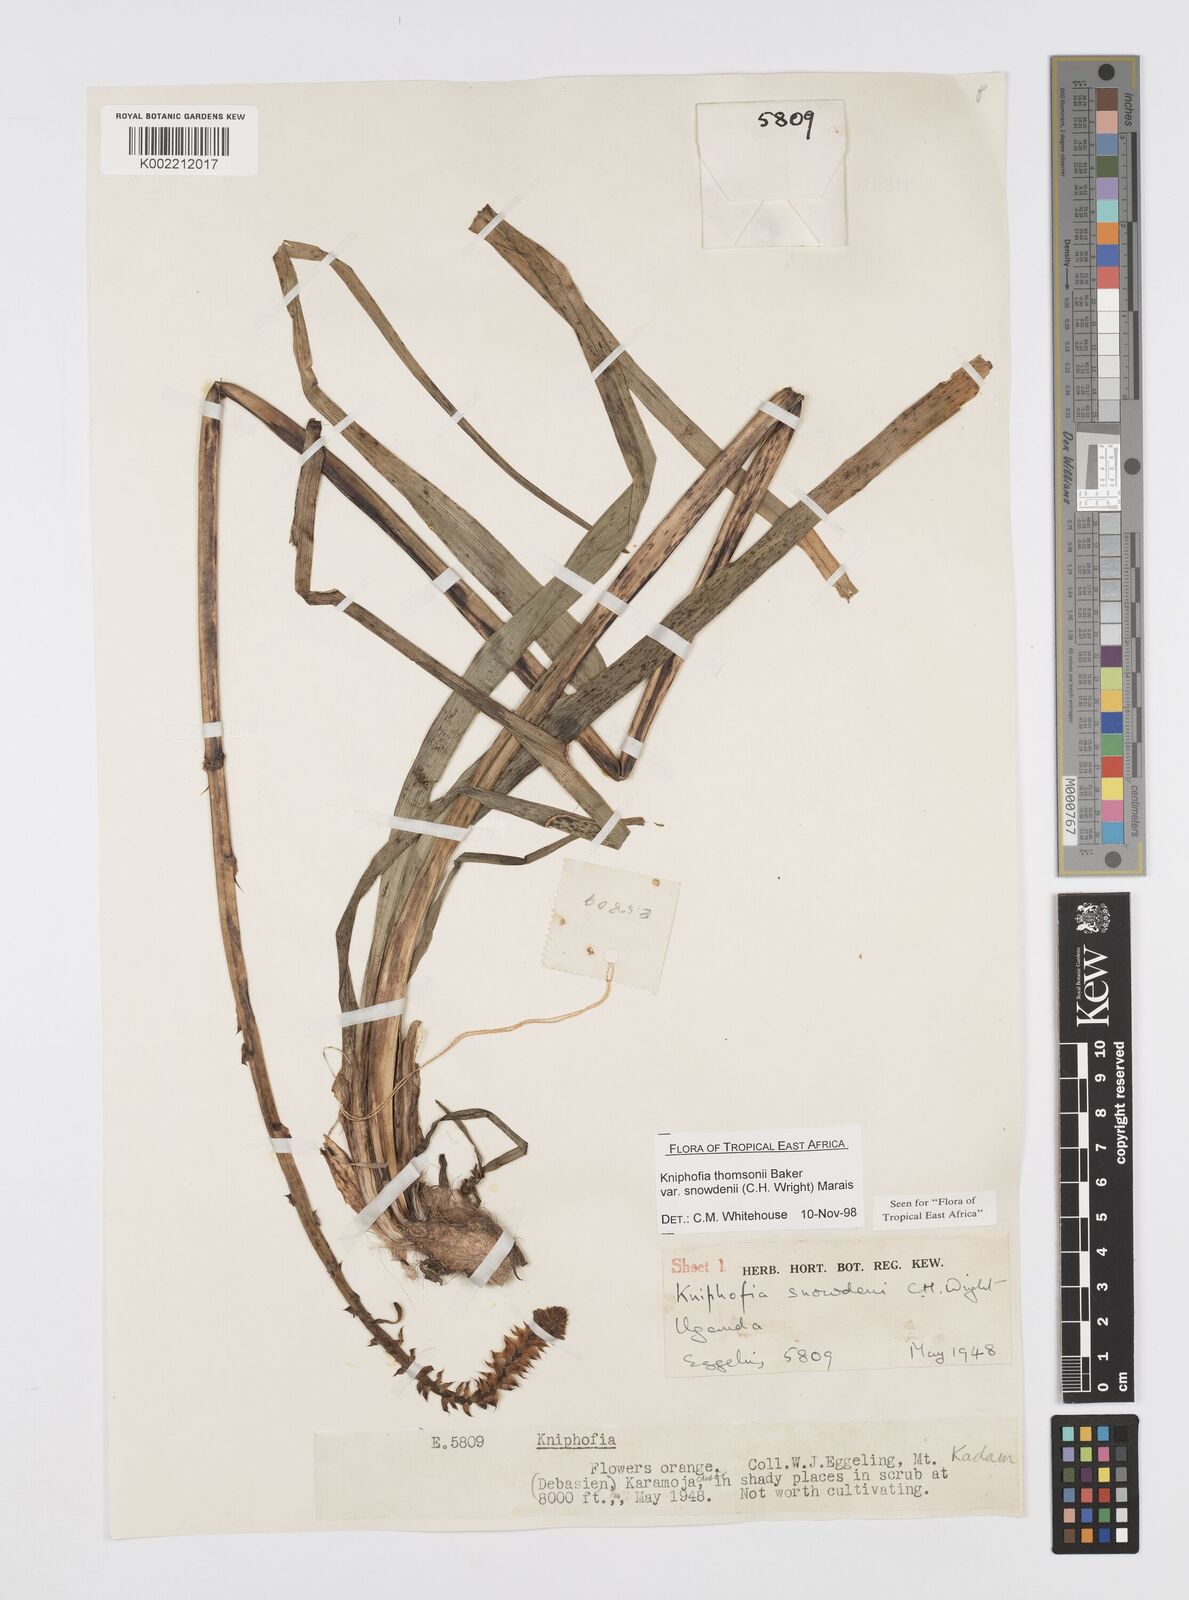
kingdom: Plantae
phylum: Tracheophyta
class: Liliopsida
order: Asparagales
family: Asphodelaceae
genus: Kniphofia
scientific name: Kniphofia thomsonii
